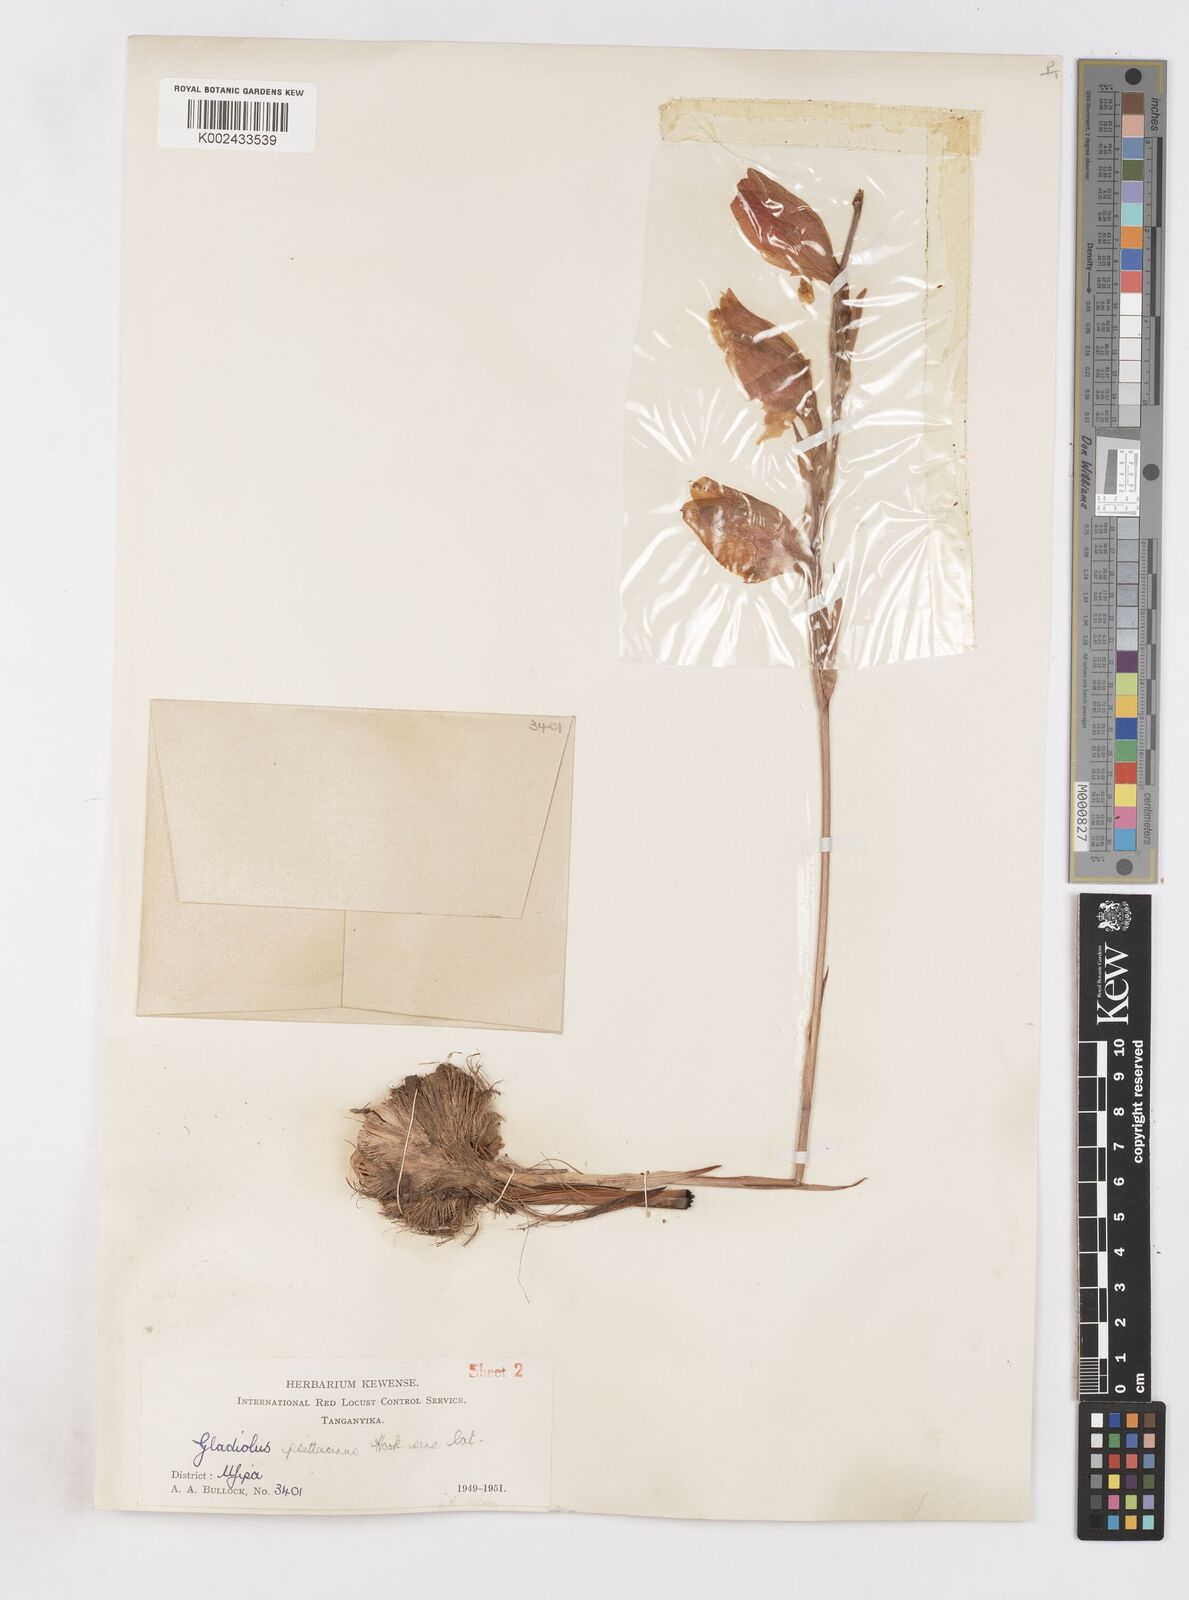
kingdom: Plantae
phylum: Tracheophyta
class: Liliopsida
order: Asparagales
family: Iridaceae
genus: Gladiolus
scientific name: Gladiolus dalenii
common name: Cornflag
